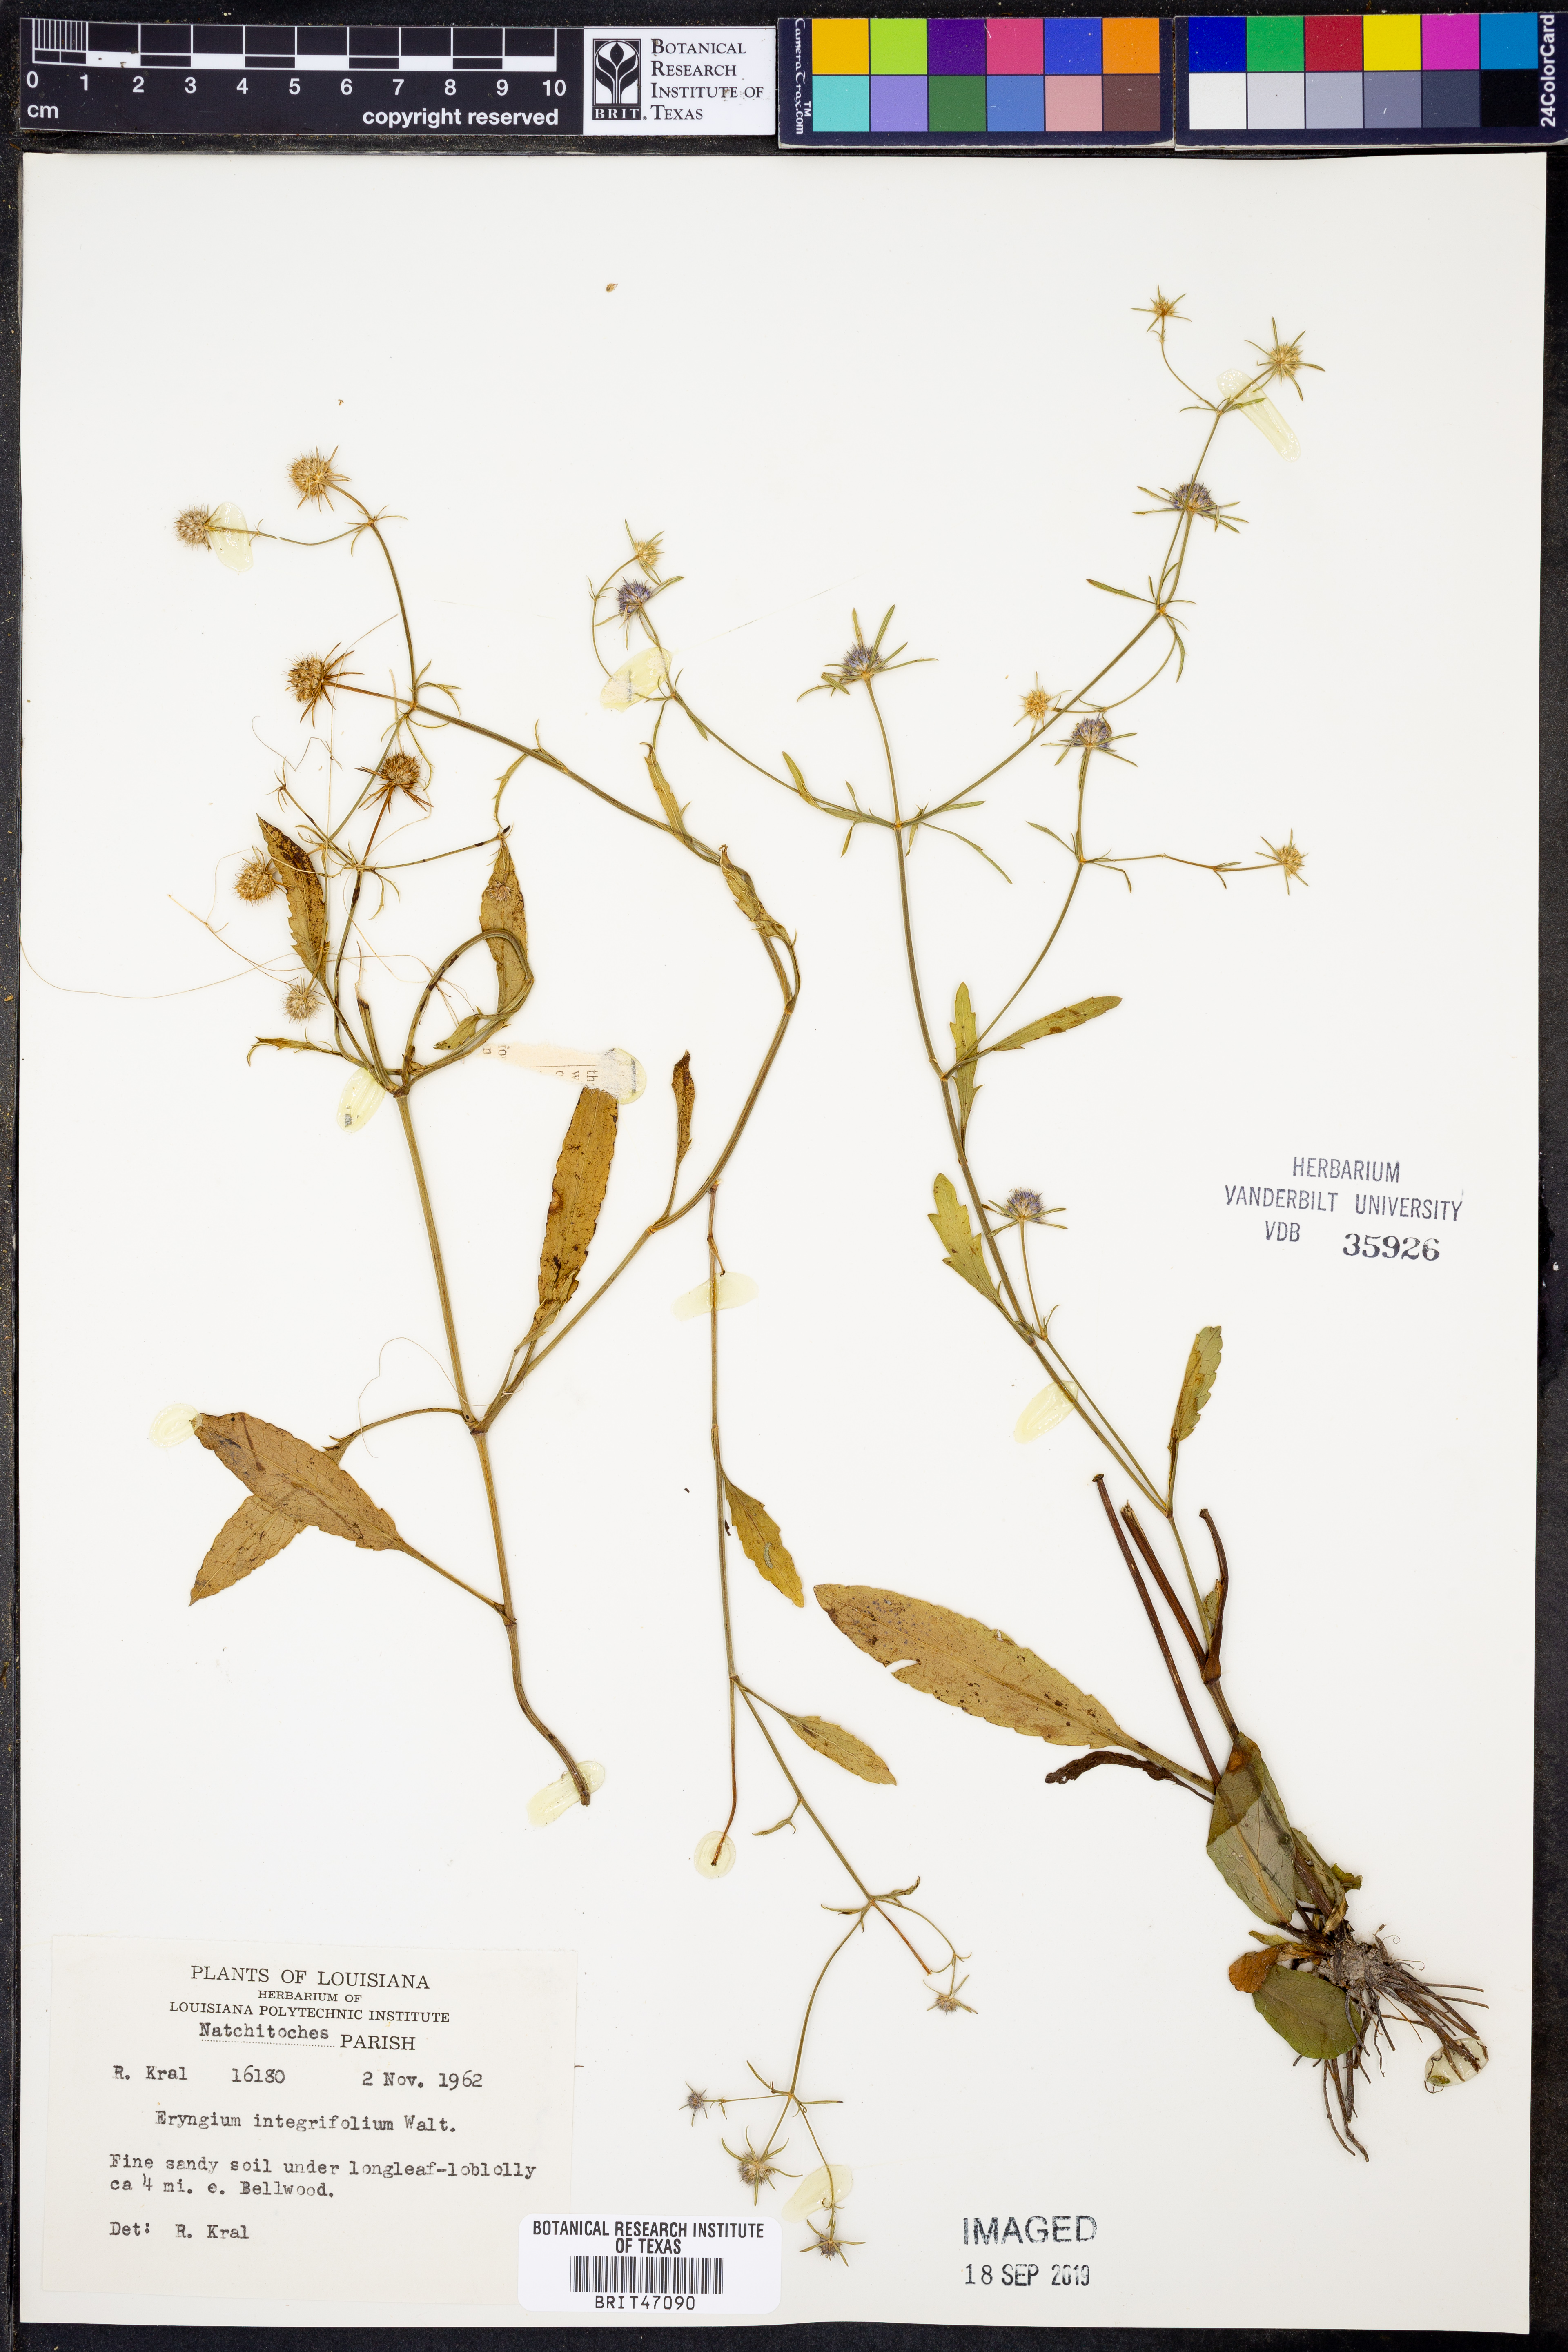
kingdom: Plantae
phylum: Tracheophyta
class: Magnoliopsida
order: Apiales
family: Apiaceae
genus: Eryngium
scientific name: Eryngium integrifolium
